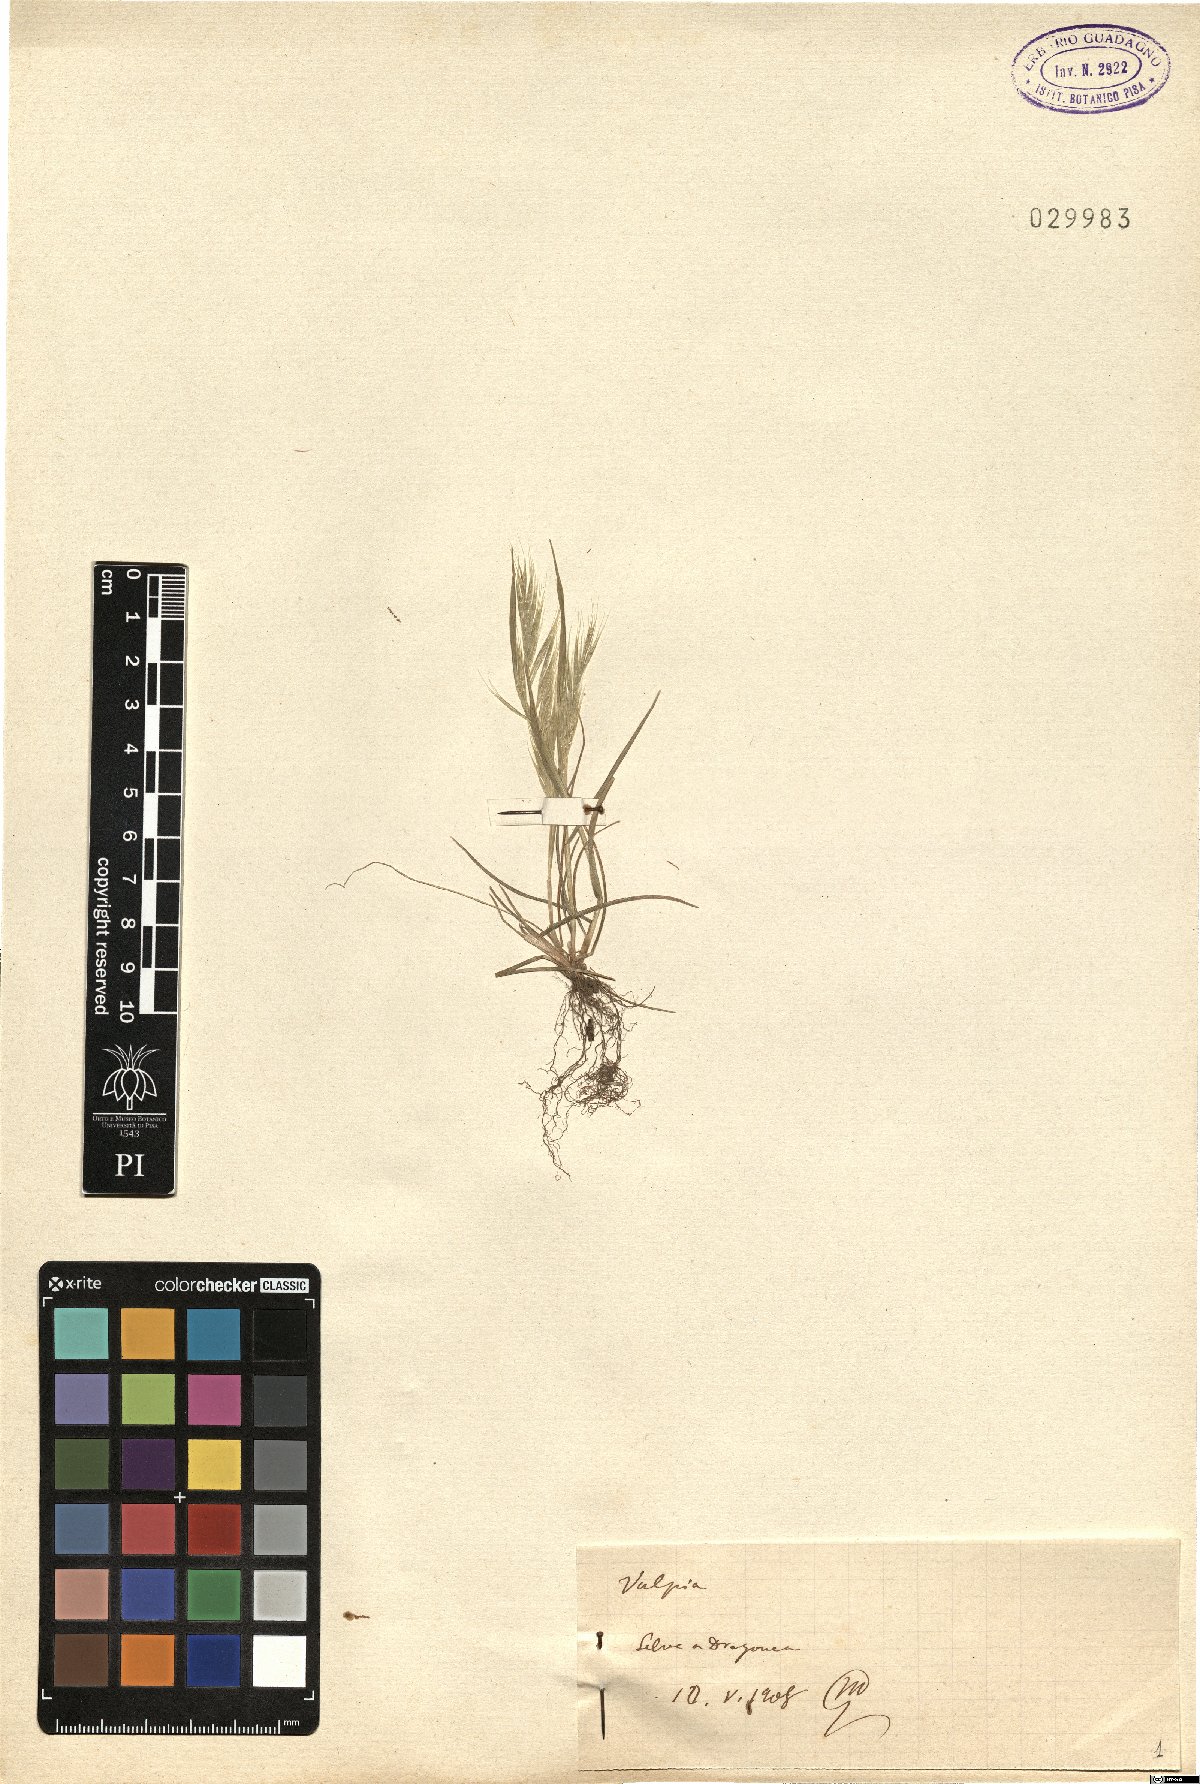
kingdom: Plantae
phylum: Tracheophyta
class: Liliopsida
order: Poales
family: Poaceae
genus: Festuca
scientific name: Festuca
